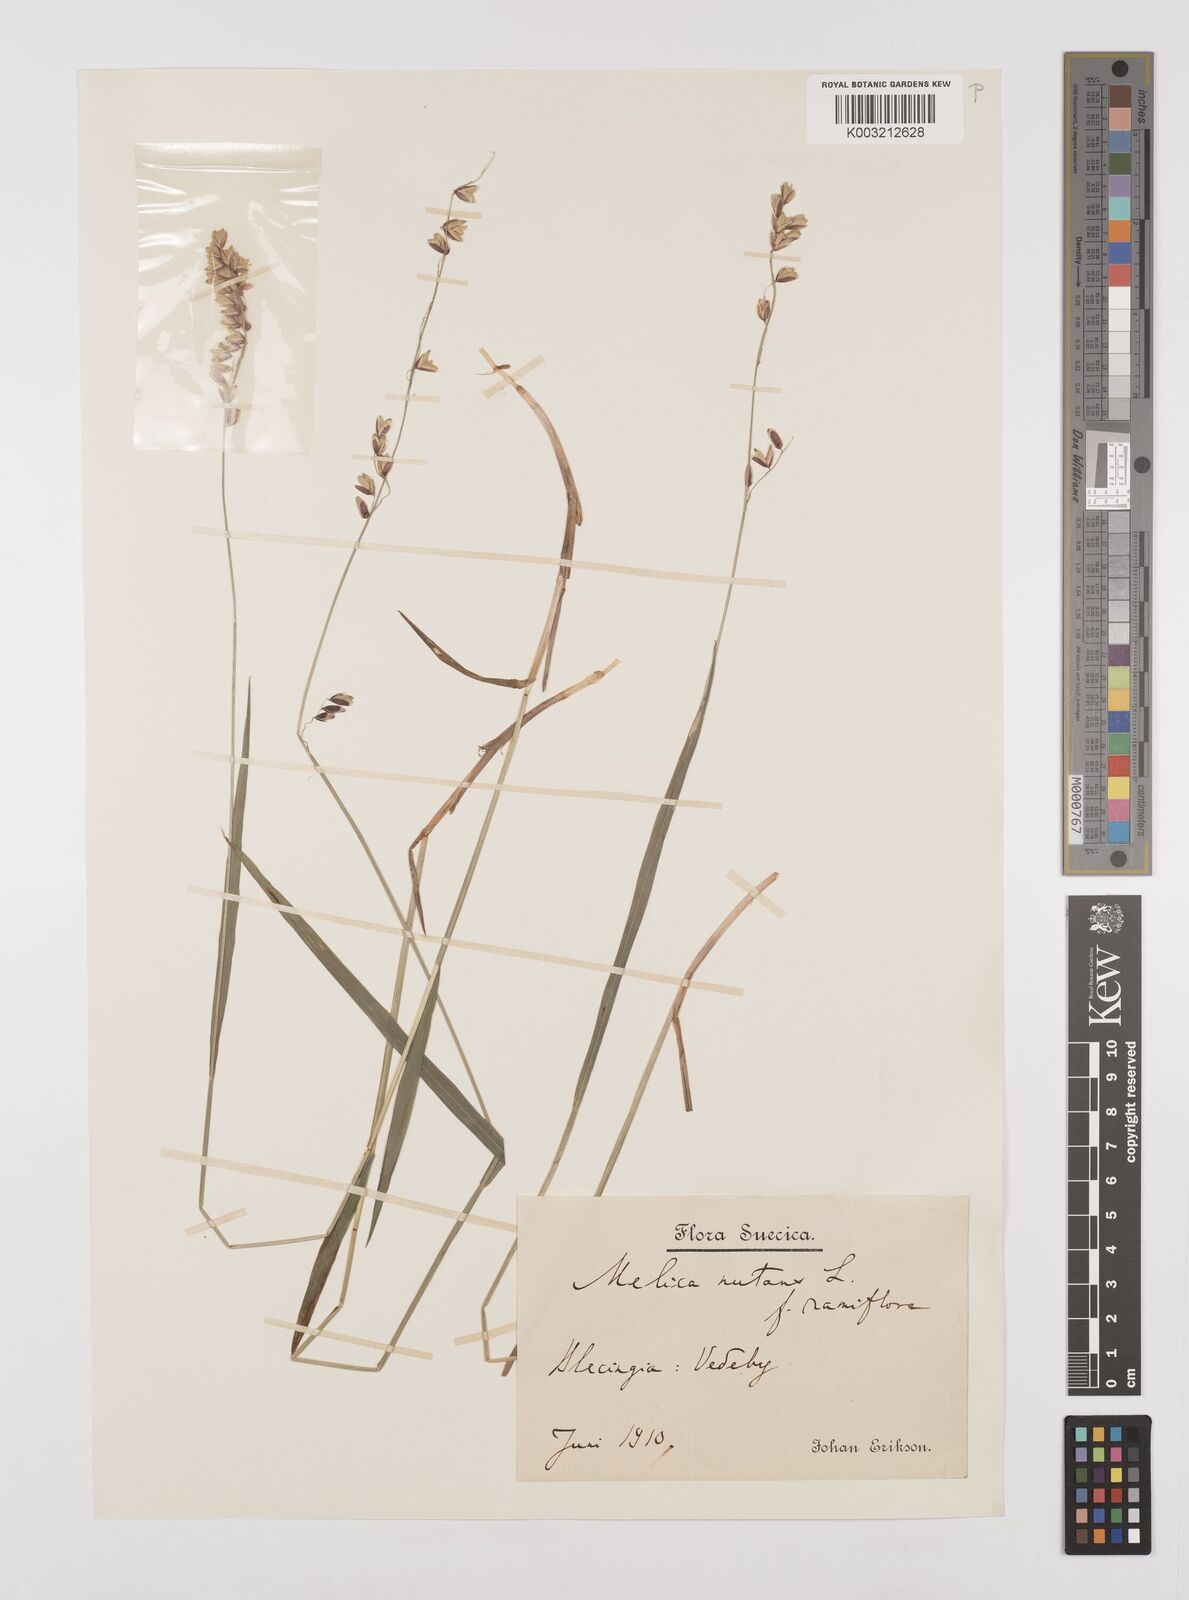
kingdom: Plantae
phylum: Tracheophyta
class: Liliopsida
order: Poales
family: Poaceae
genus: Melica
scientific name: Melica
